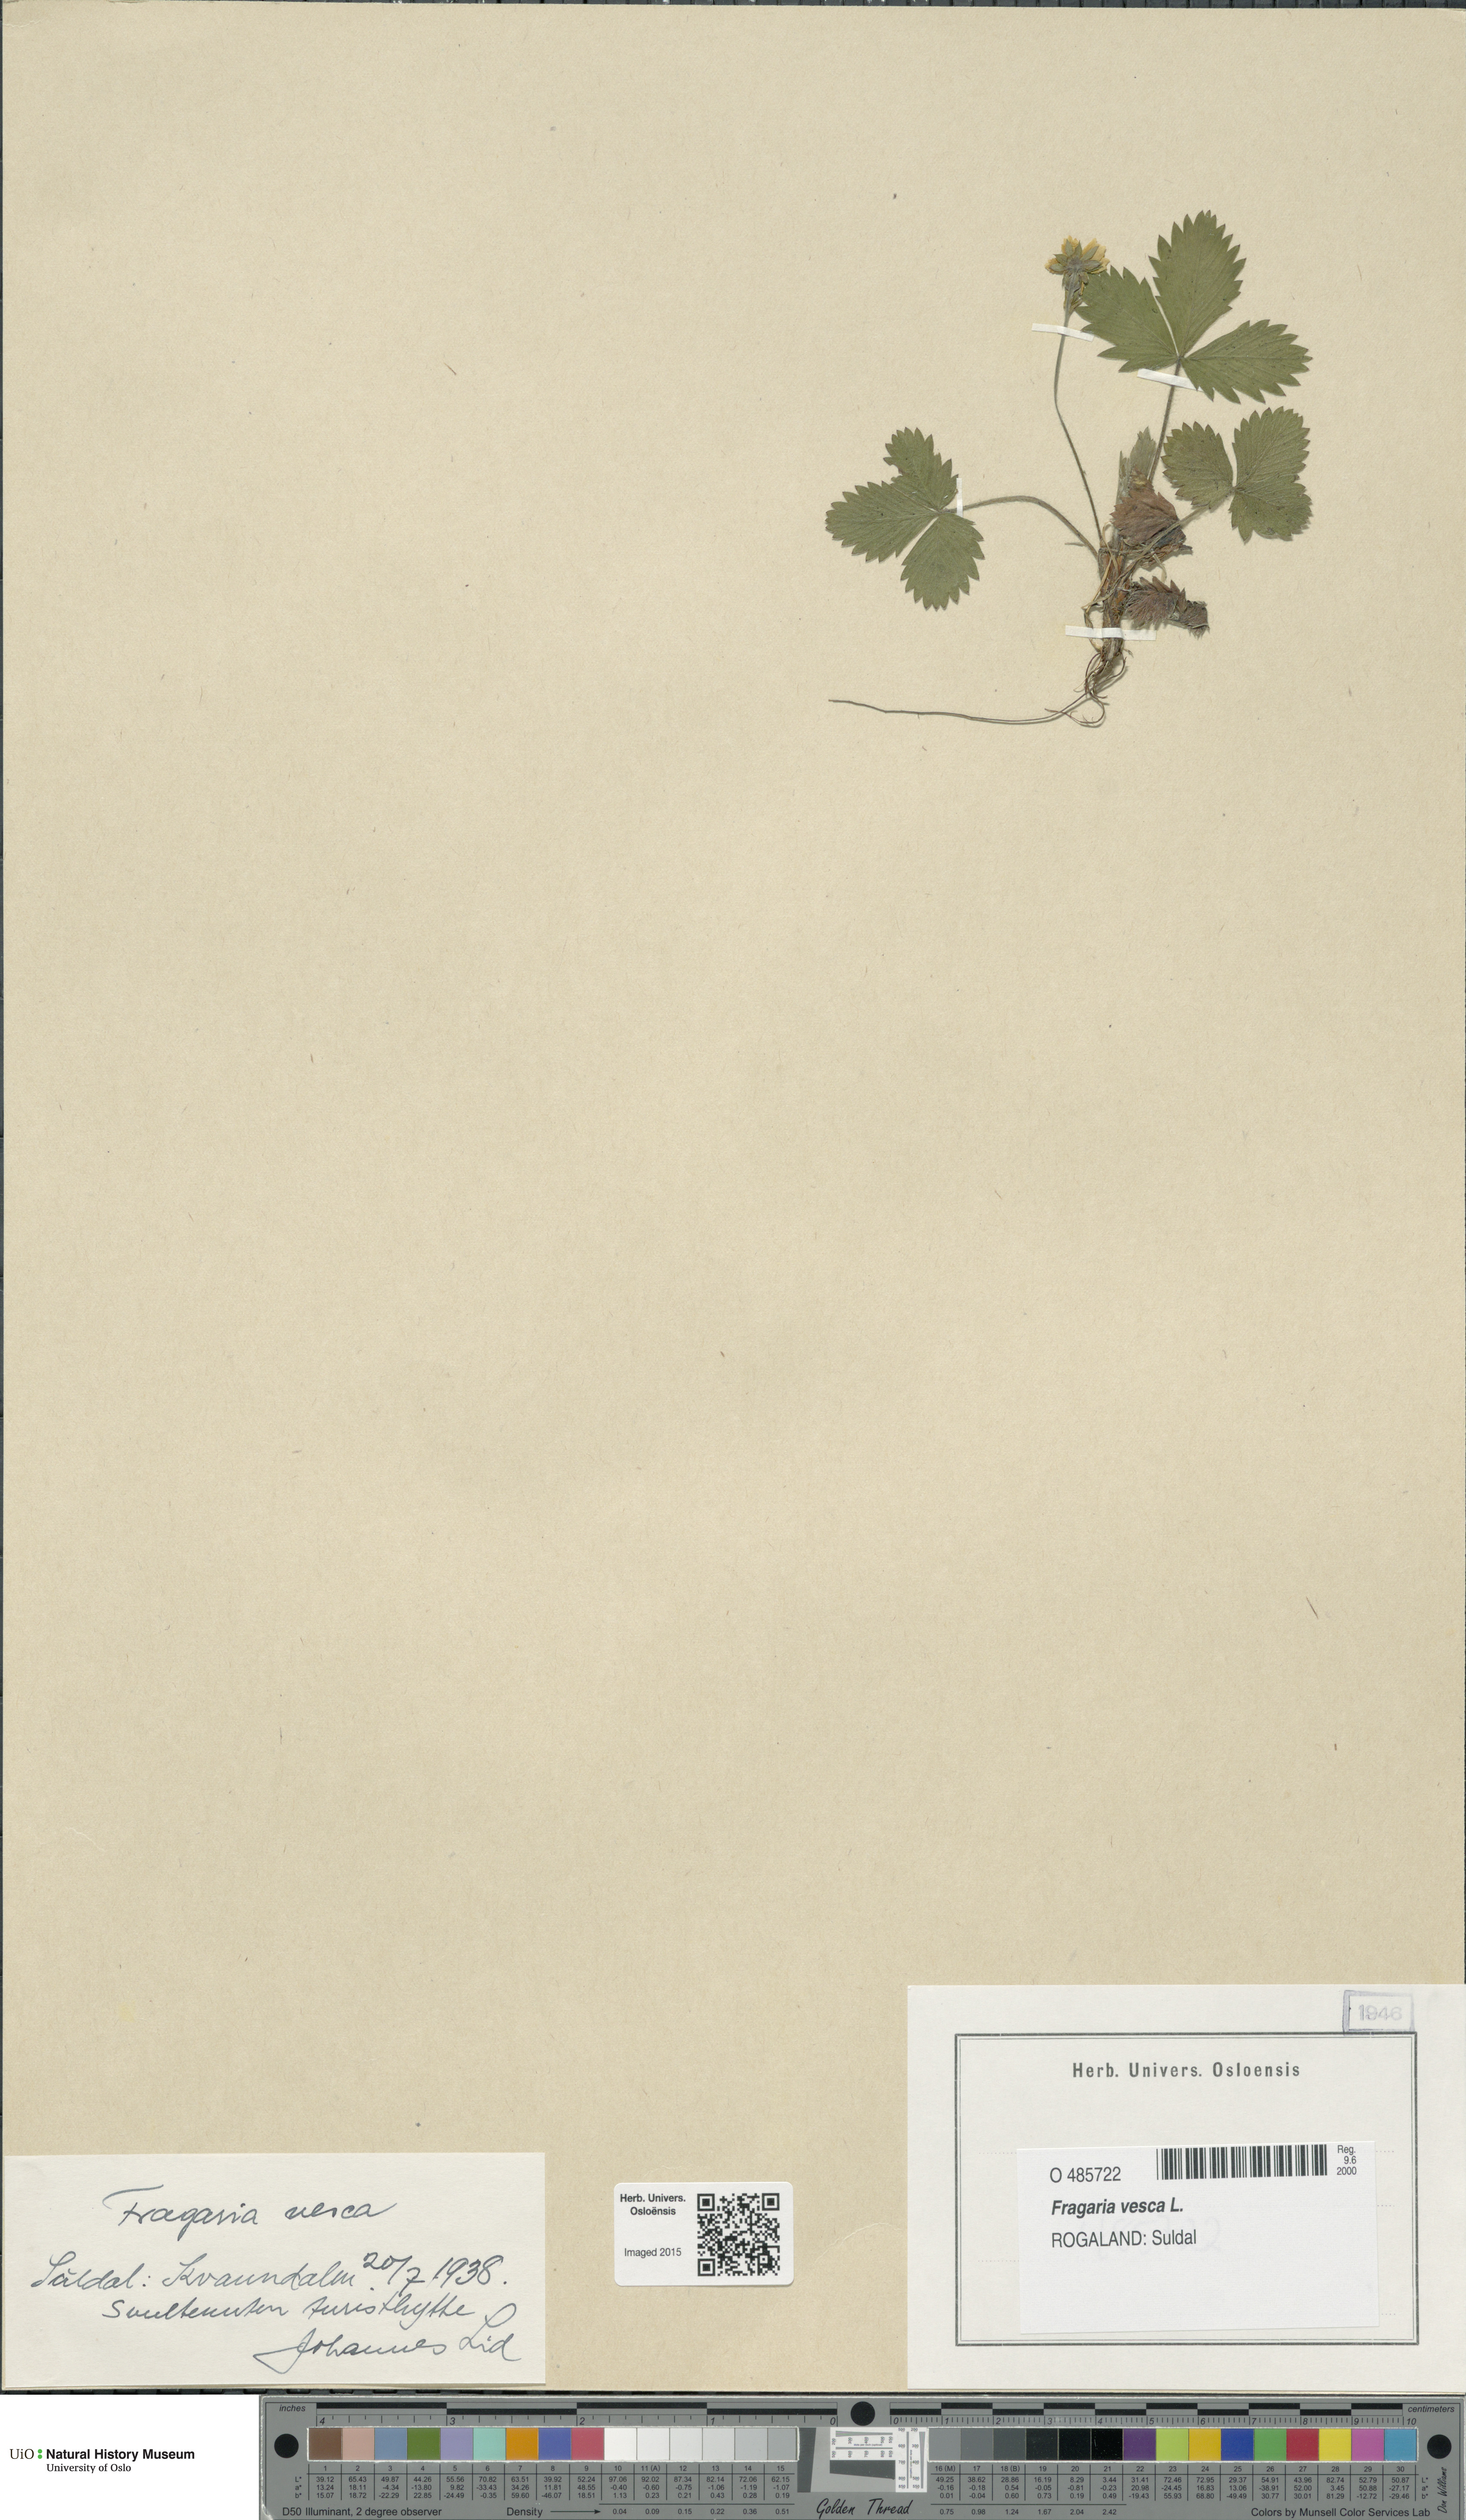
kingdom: Plantae
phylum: Tracheophyta
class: Magnoliopsida
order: Rosales
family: Rosaceae
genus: Fragaria
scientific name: Fragaria vesca
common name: Wild strawberry
